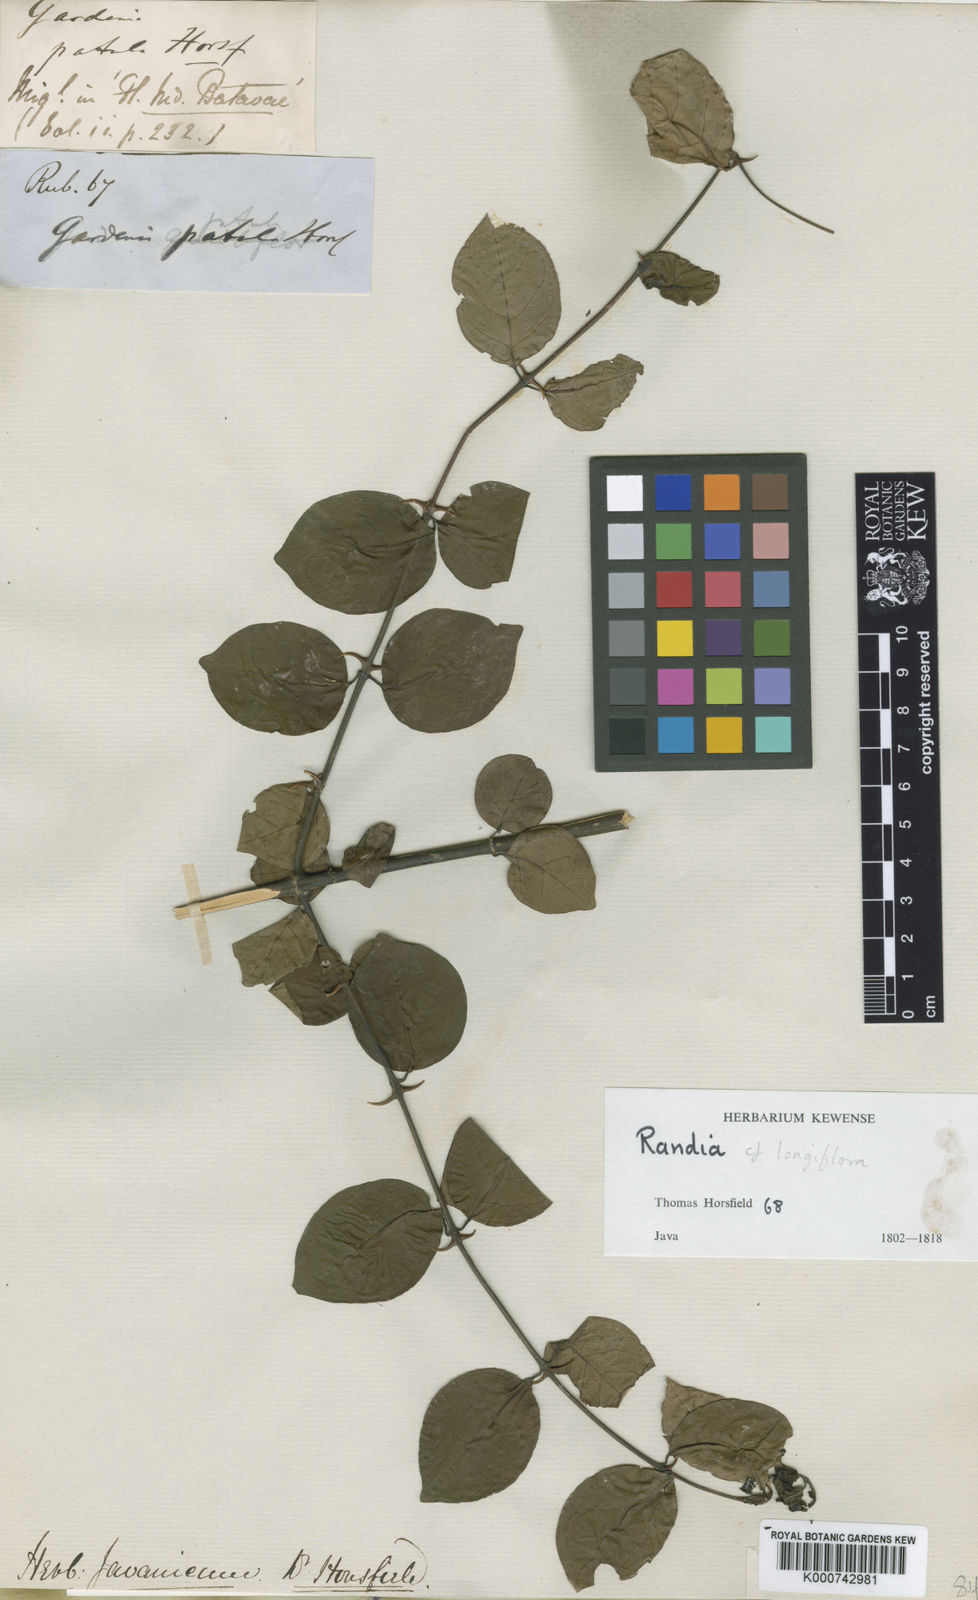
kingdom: Plantae
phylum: Tracheophyta
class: Magnoliopsida
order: Gentianales
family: Rubiaceae
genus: Oxyceros
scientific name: Oxyceros patulus
